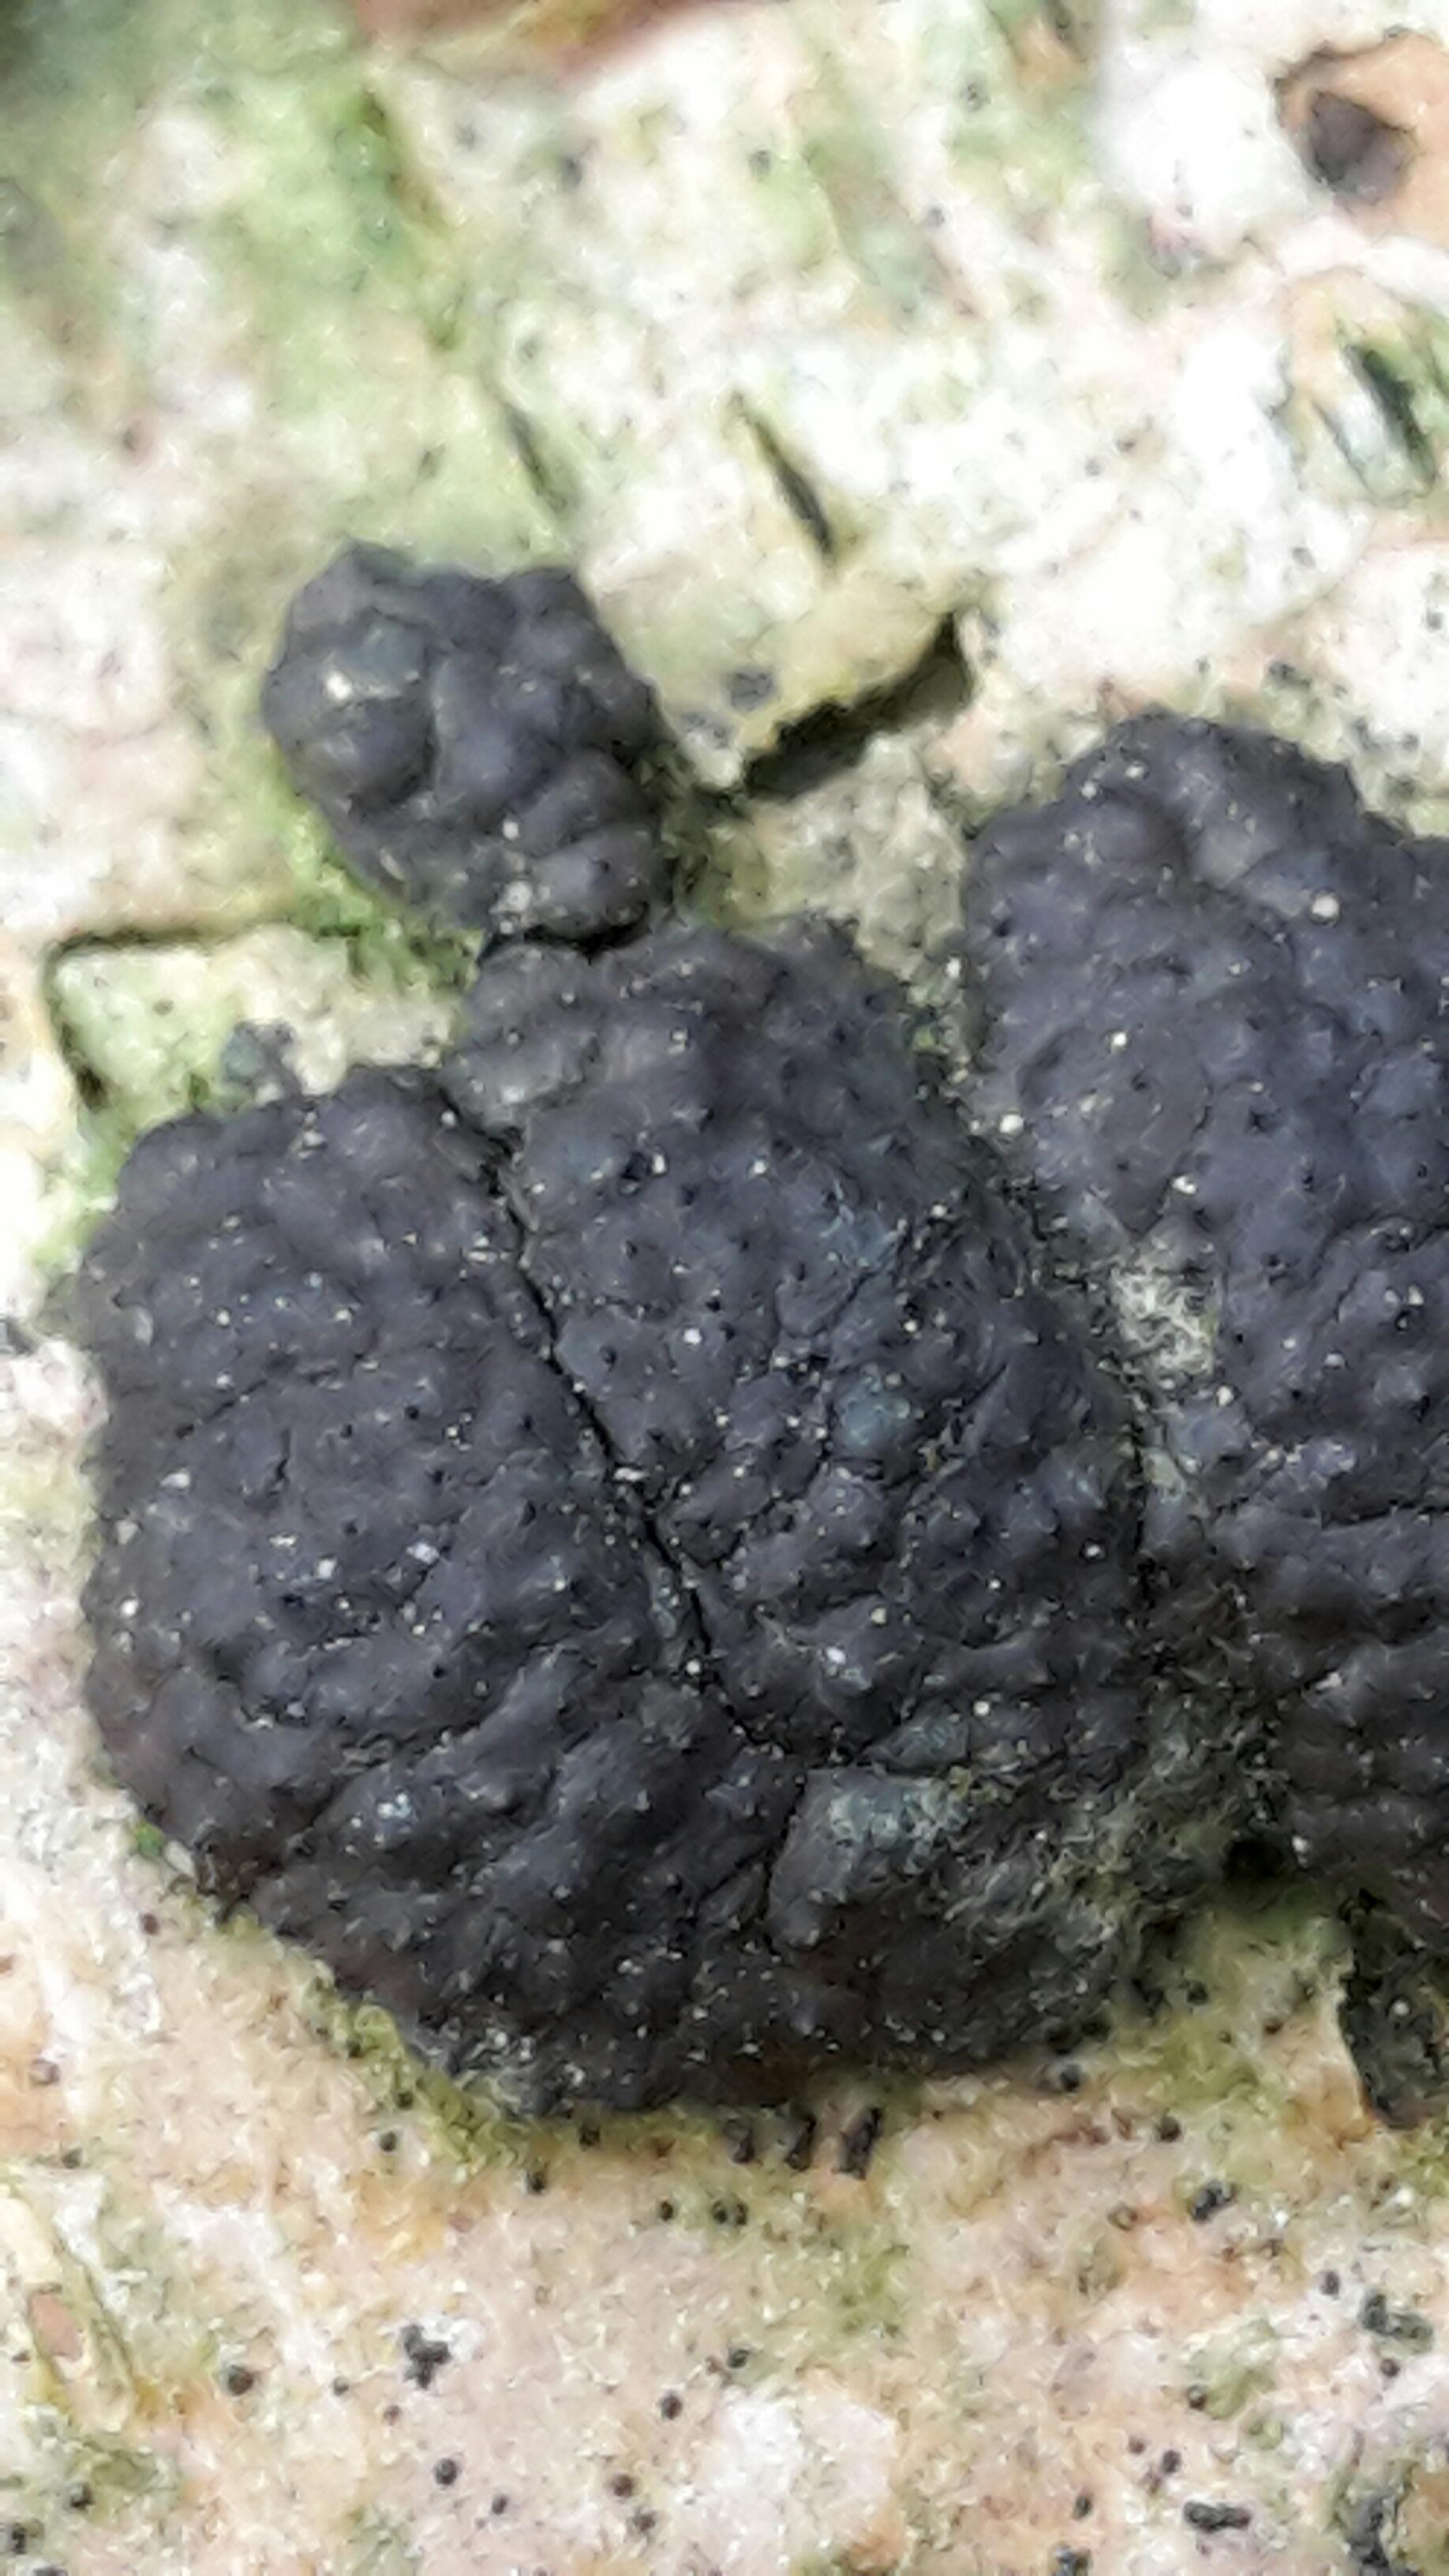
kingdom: Fungi
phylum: Ascomycota
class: Sordariomycetes
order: Xylariales
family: Hypoxylaceae
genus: Jackrogersella
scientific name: Jackrogersella multiformis
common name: foranderlig kulbær
